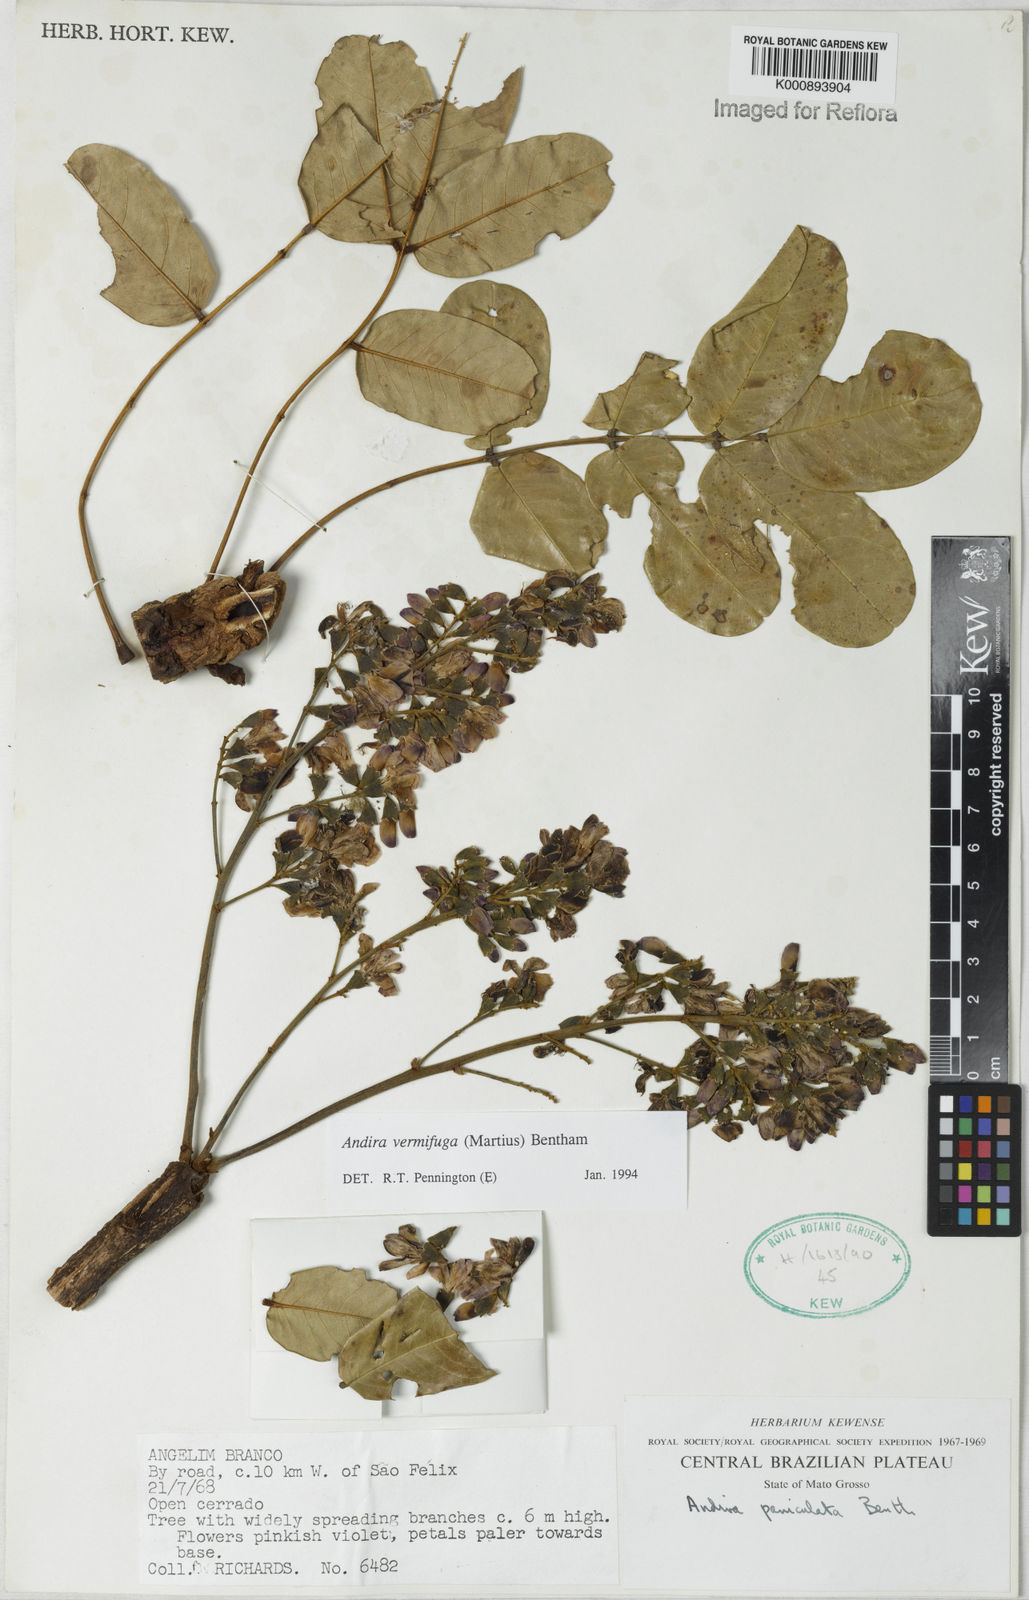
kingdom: Plantae
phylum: Tracheophyta
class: Magnoliopsida
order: Fabales
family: Fabaceae
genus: Andira
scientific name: Andira vermifuga
